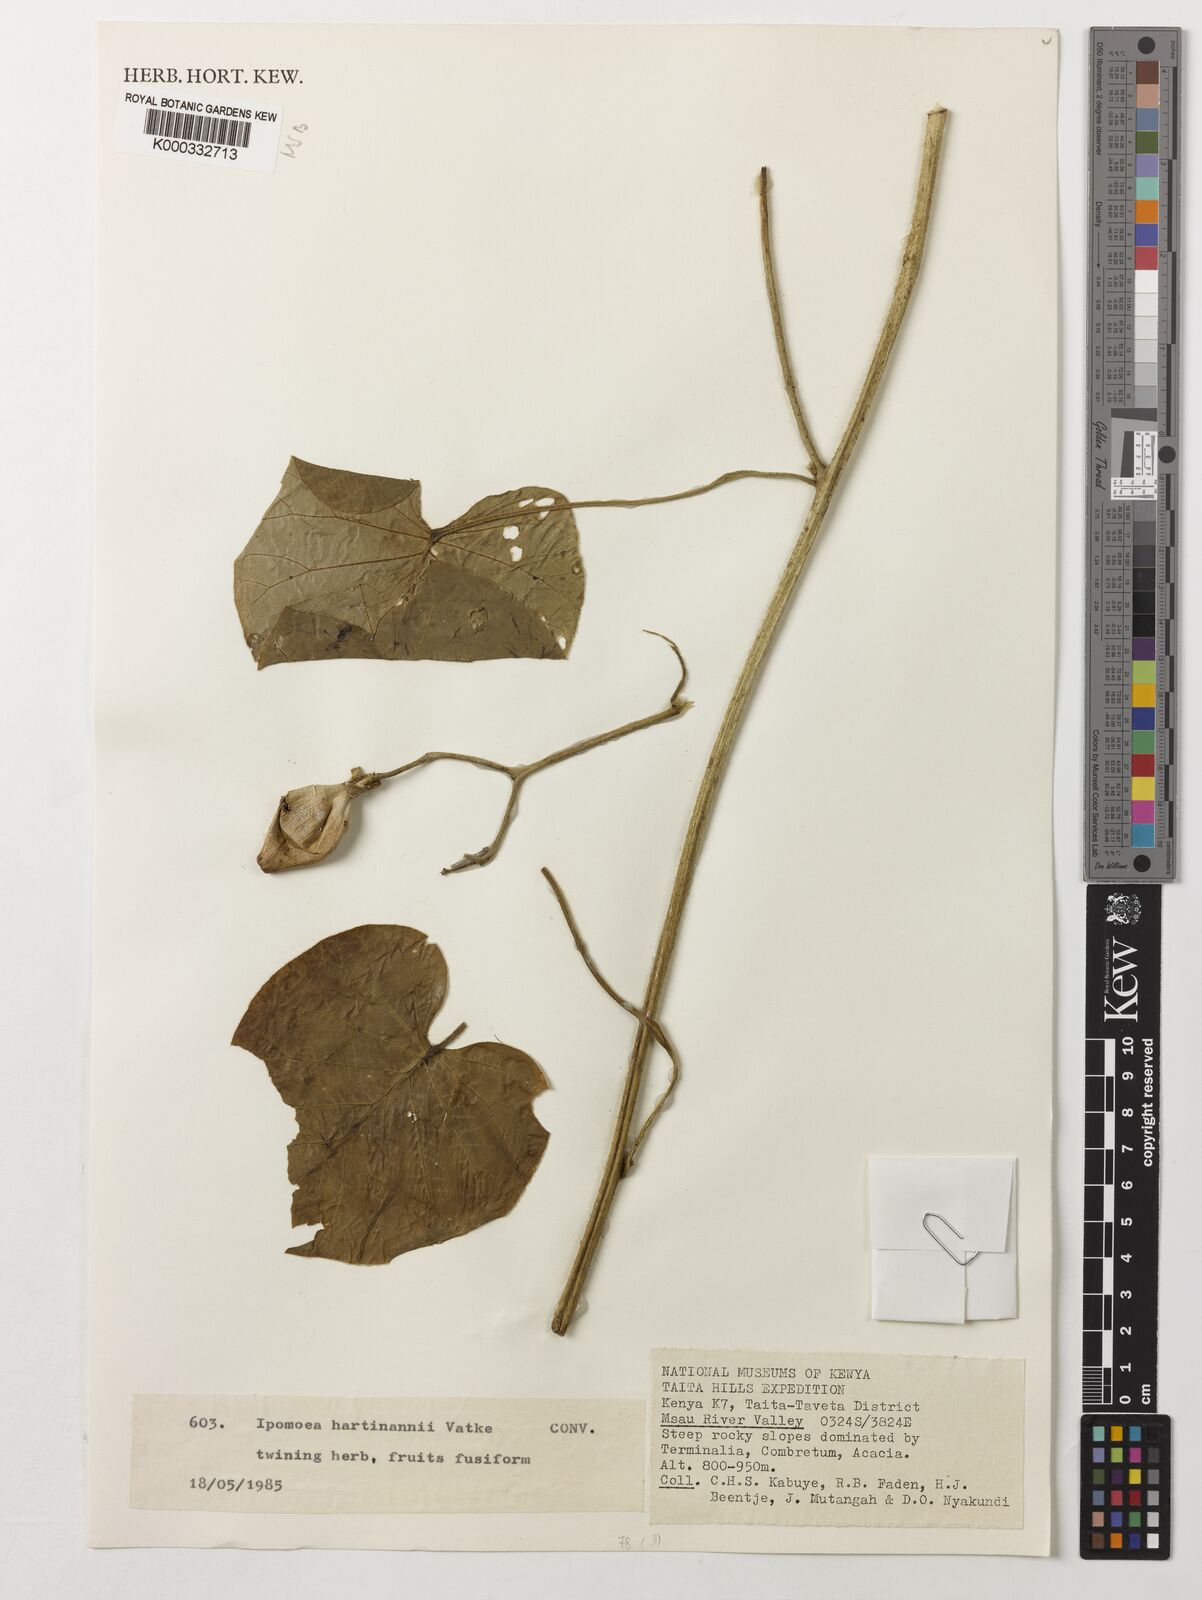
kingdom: Plantae
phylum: Tracheophyta
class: Magnoliopsida
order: Solanales
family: Convolvulaceae
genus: Ipomoea
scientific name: Ipomoea hartmannii
